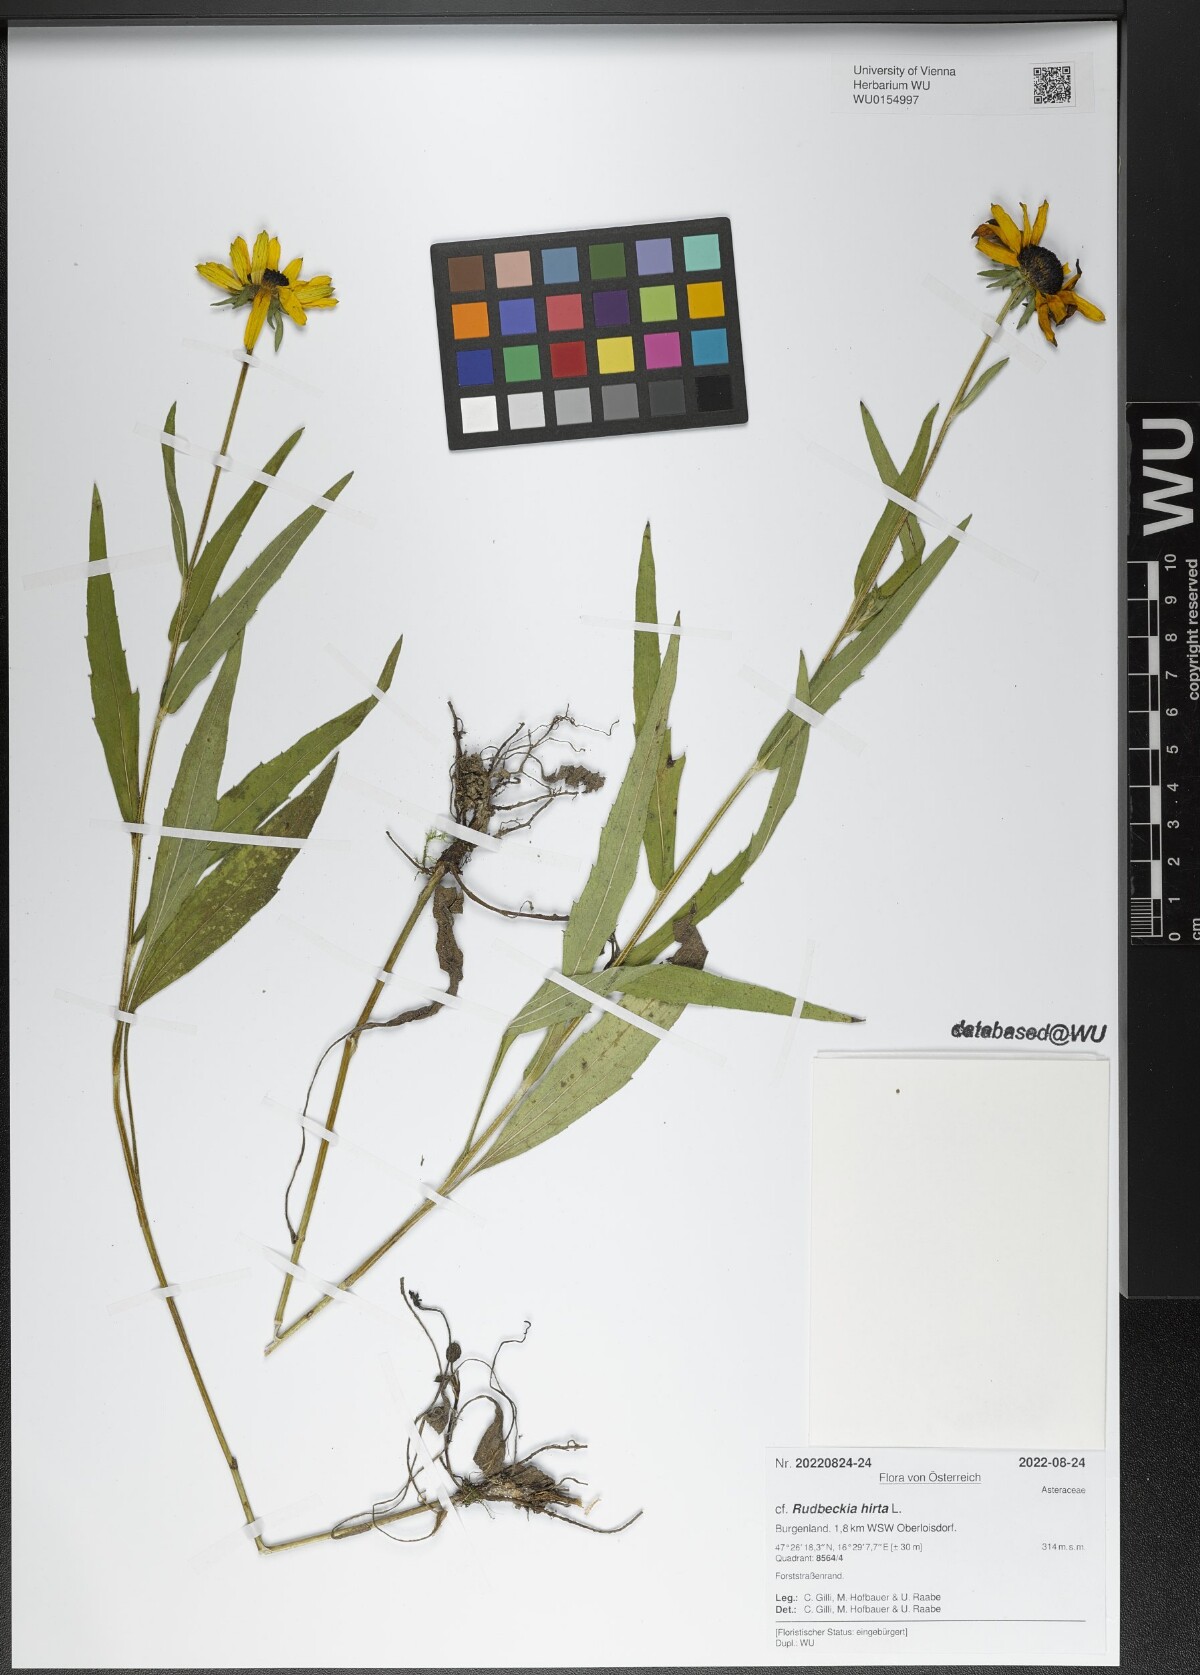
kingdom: Plantae
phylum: Tracheophyta
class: Magnoliopsida
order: Asterales
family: Asteraceae
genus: Rudbeckia
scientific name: Rudbeckia hirta
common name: Black-eyed-susan
